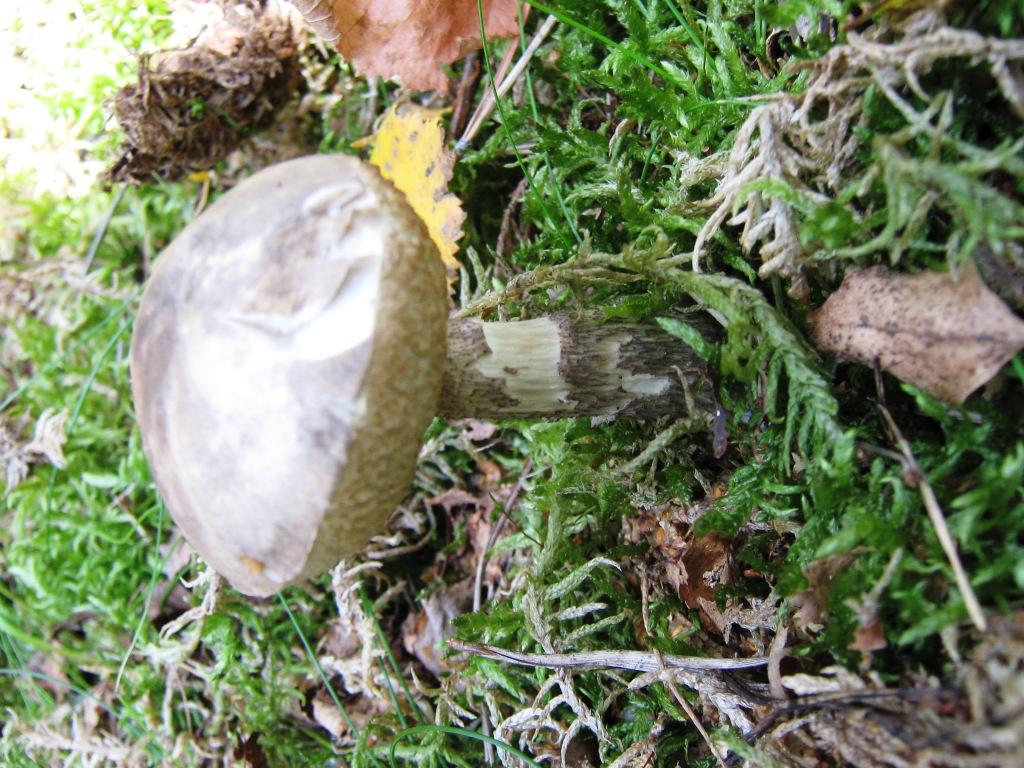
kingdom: Fungi
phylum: Basidiomycota
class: Agaricomycetes
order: Boletales
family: Boletaceae
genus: Leccinum
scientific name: Leccinum variicolor
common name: flammet skælrørhat
